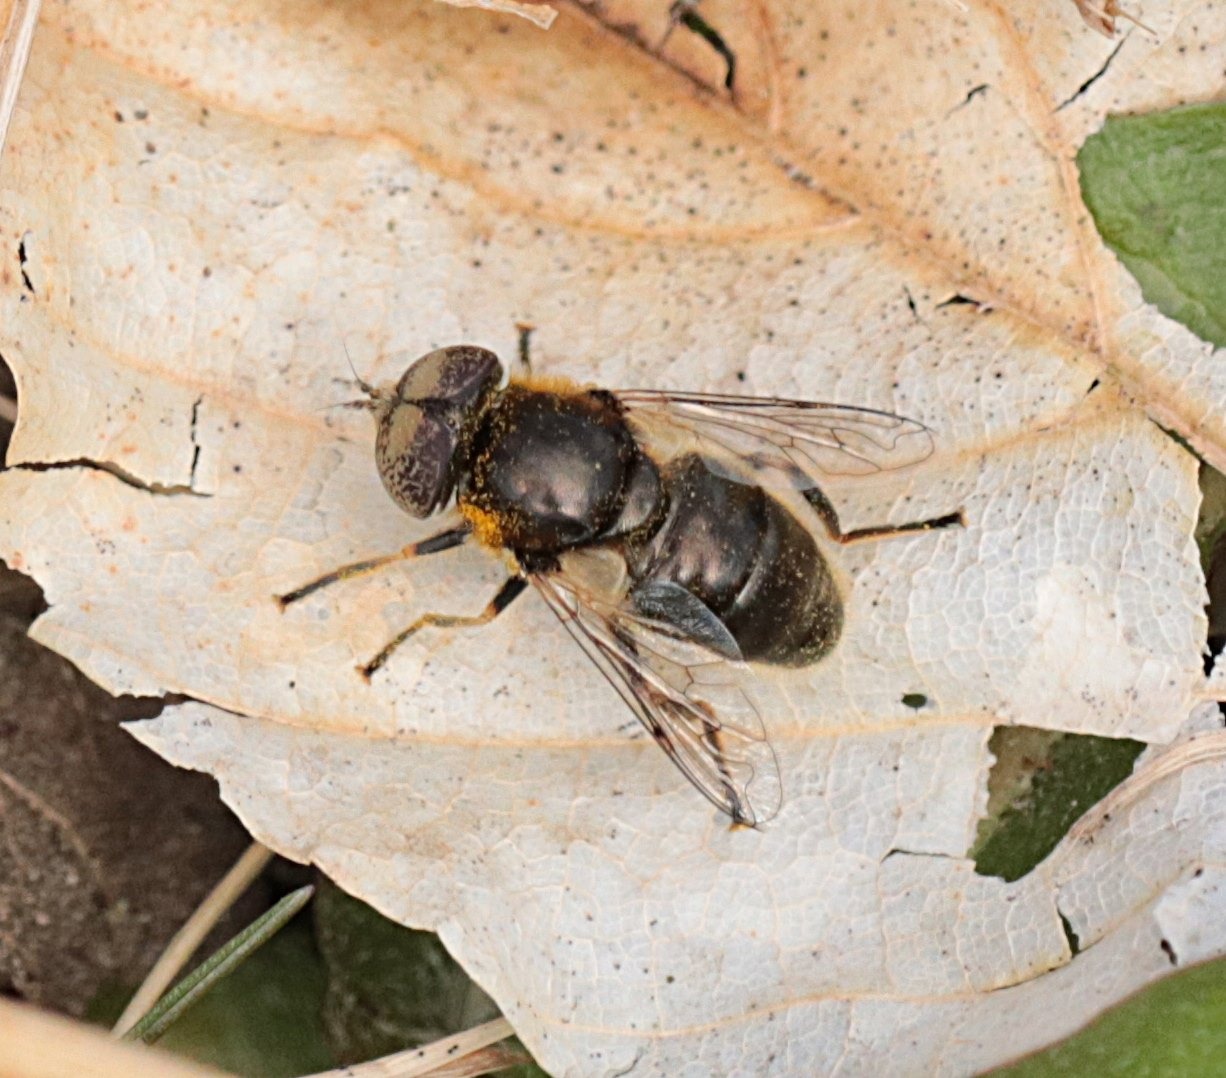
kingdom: Animalia
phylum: Arthropoda
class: Insecta
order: Diptera
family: Syrphidae
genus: Eristalinus
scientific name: Eristalinus aeneus
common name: Brakvands-dyndflue
